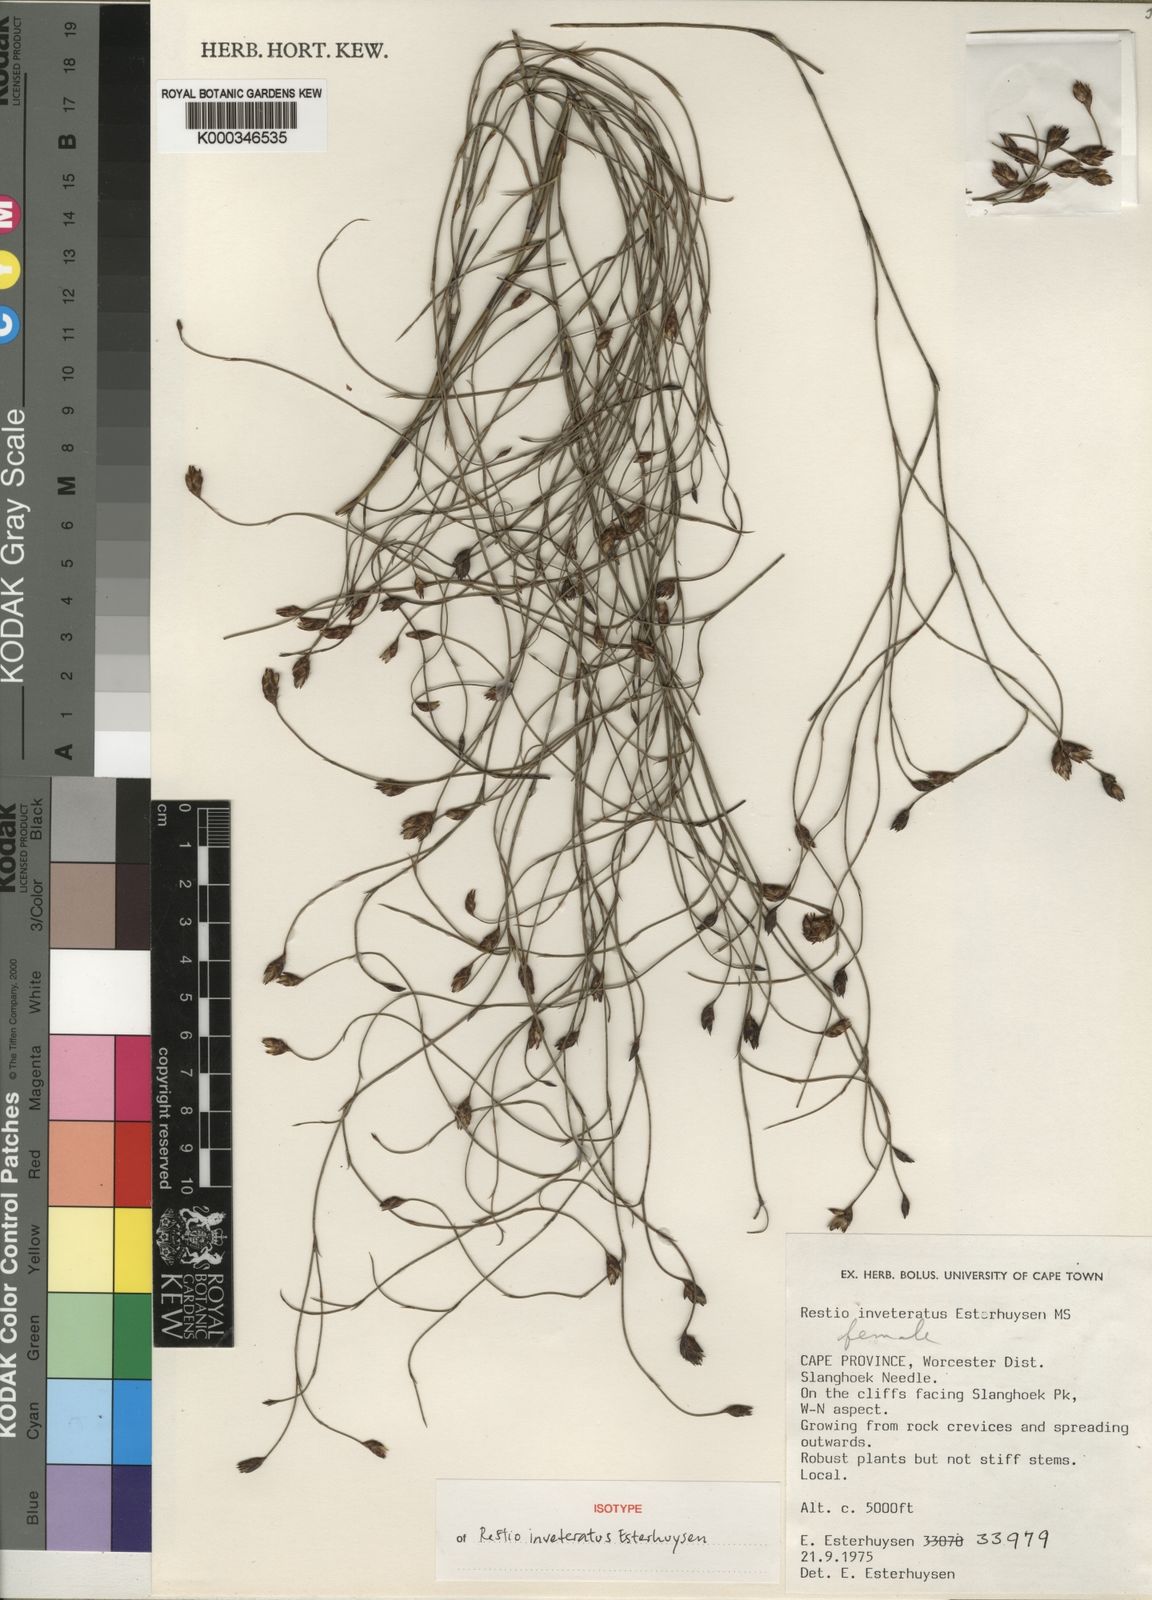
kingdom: Plantae
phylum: Tracheophyta
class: Liliopsida
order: Poales
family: Restionaceae
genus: Restio
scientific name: Restio inveteratus
